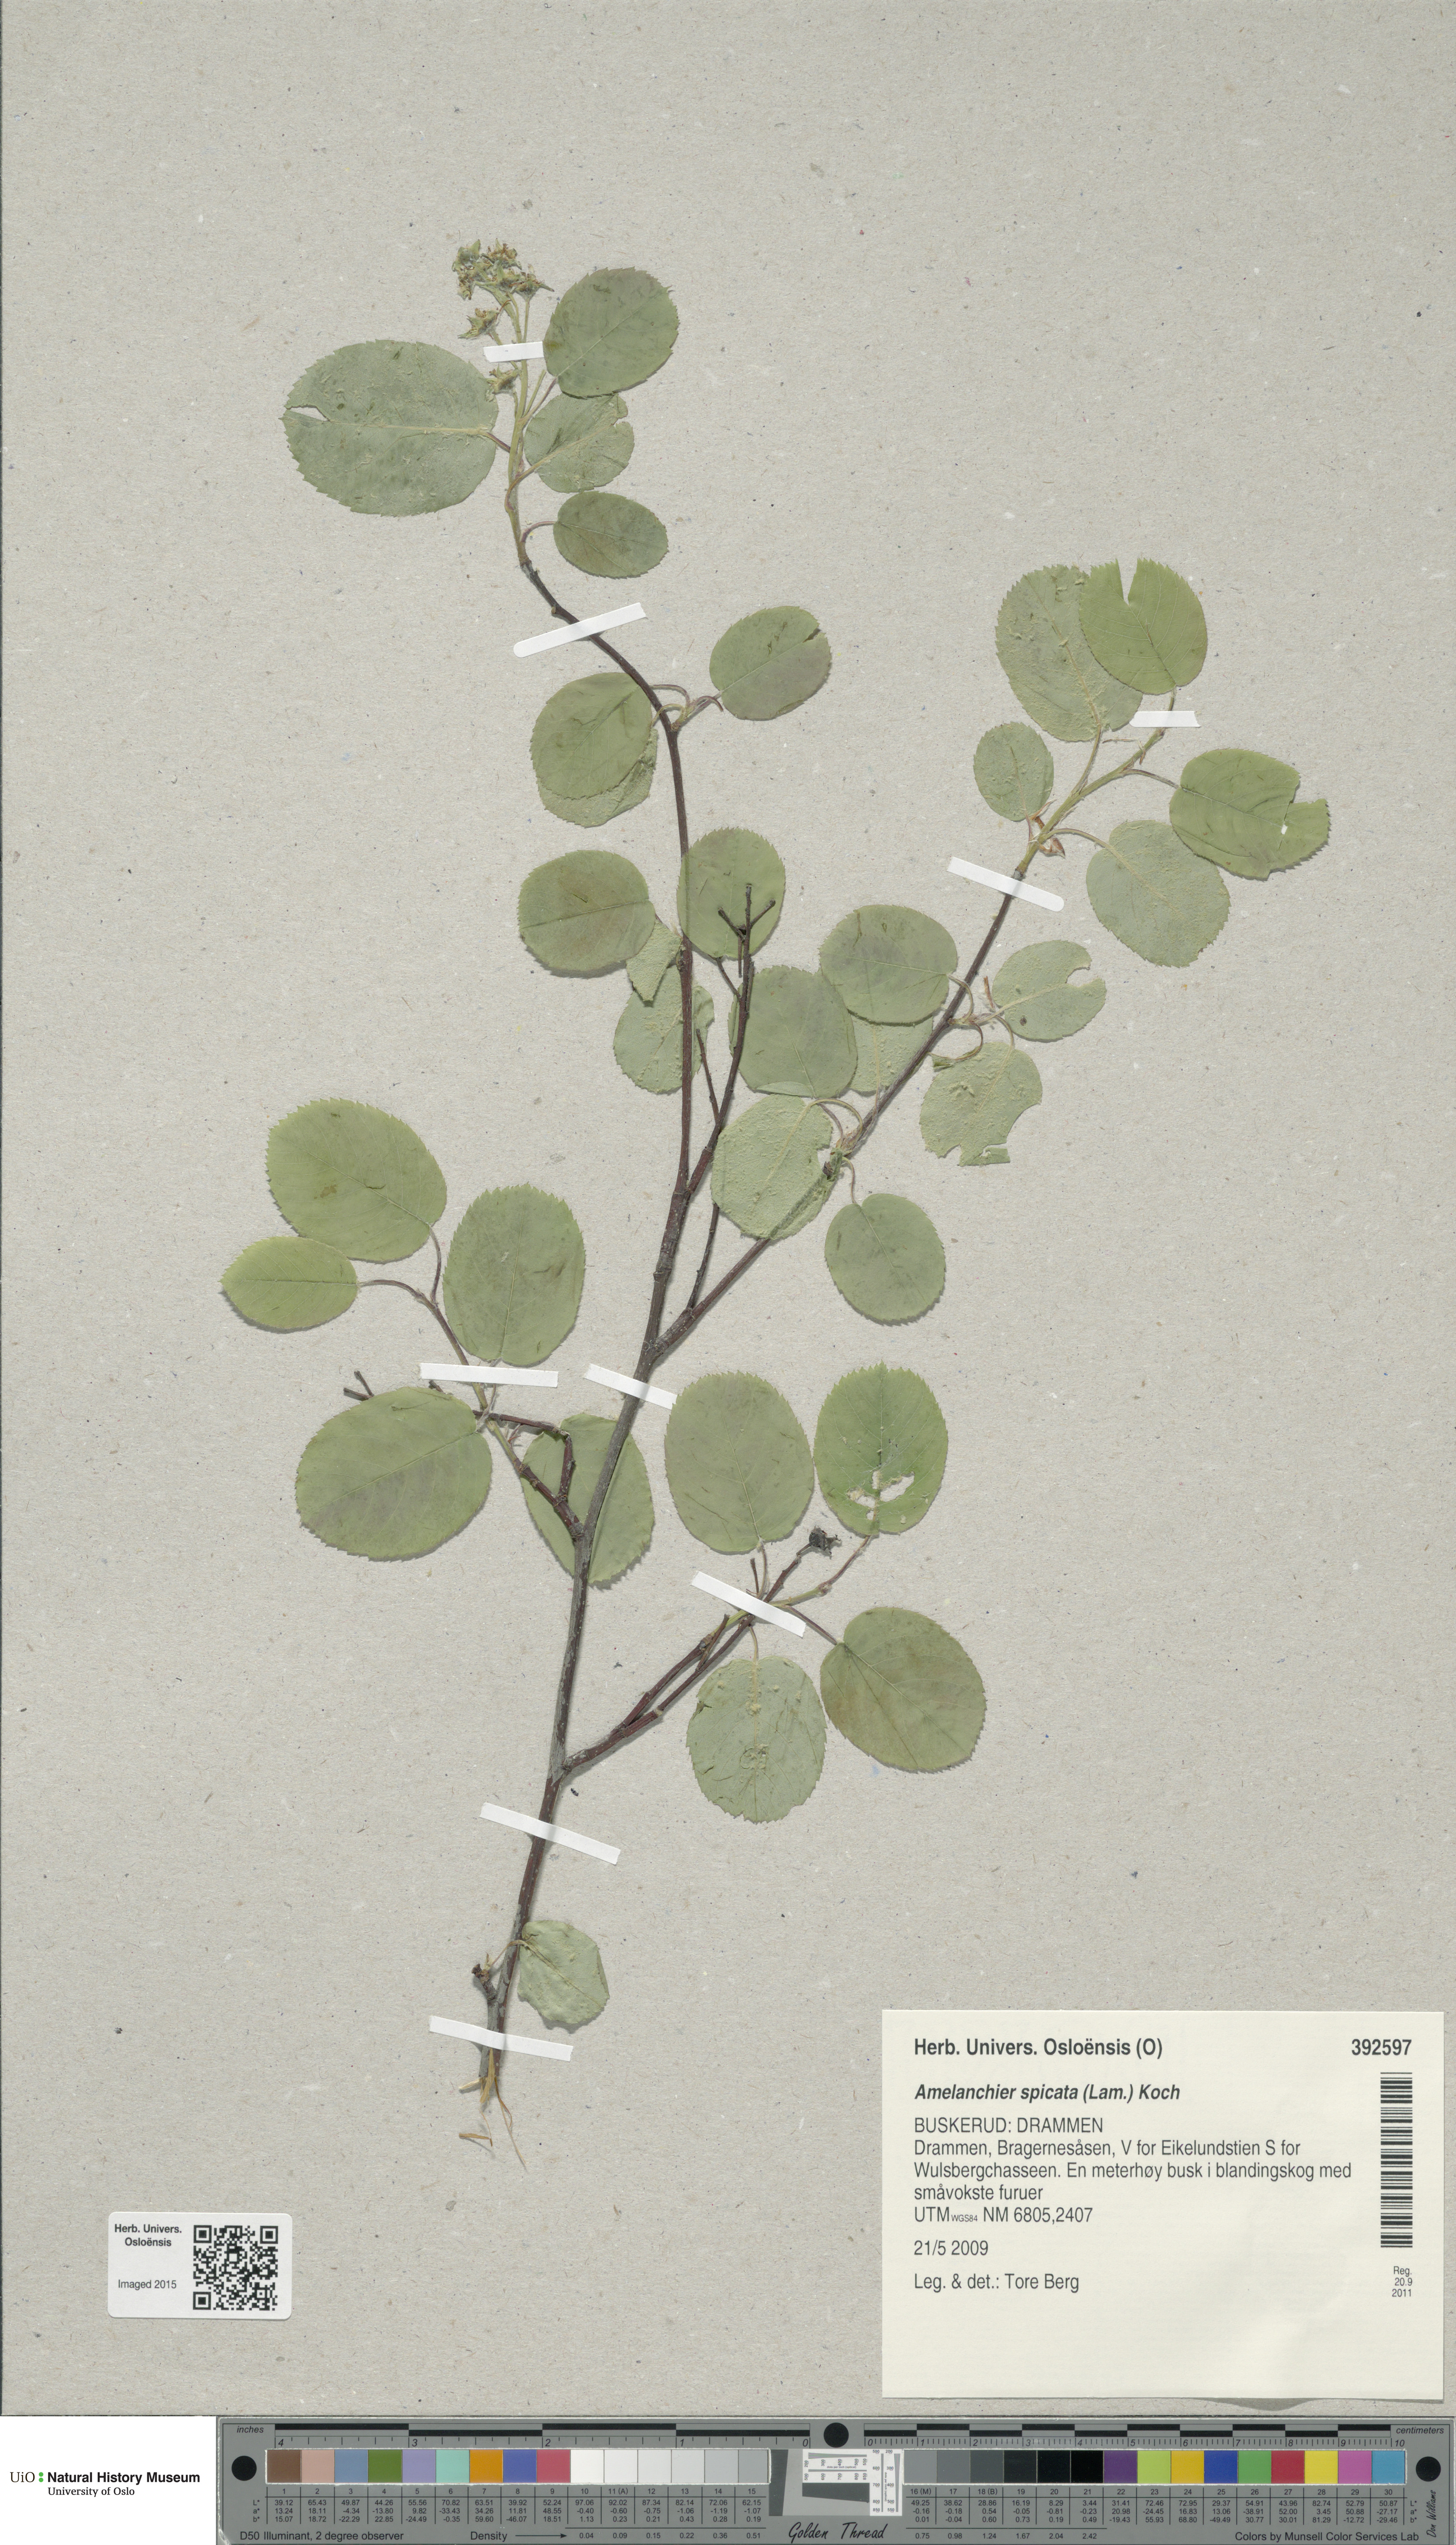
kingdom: Plantae
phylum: Tracheophyta
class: Magnoliopsida
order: Rosales
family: Rosaceae
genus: Amelanchier
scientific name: Amelanchier humilis
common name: Low juneberry
